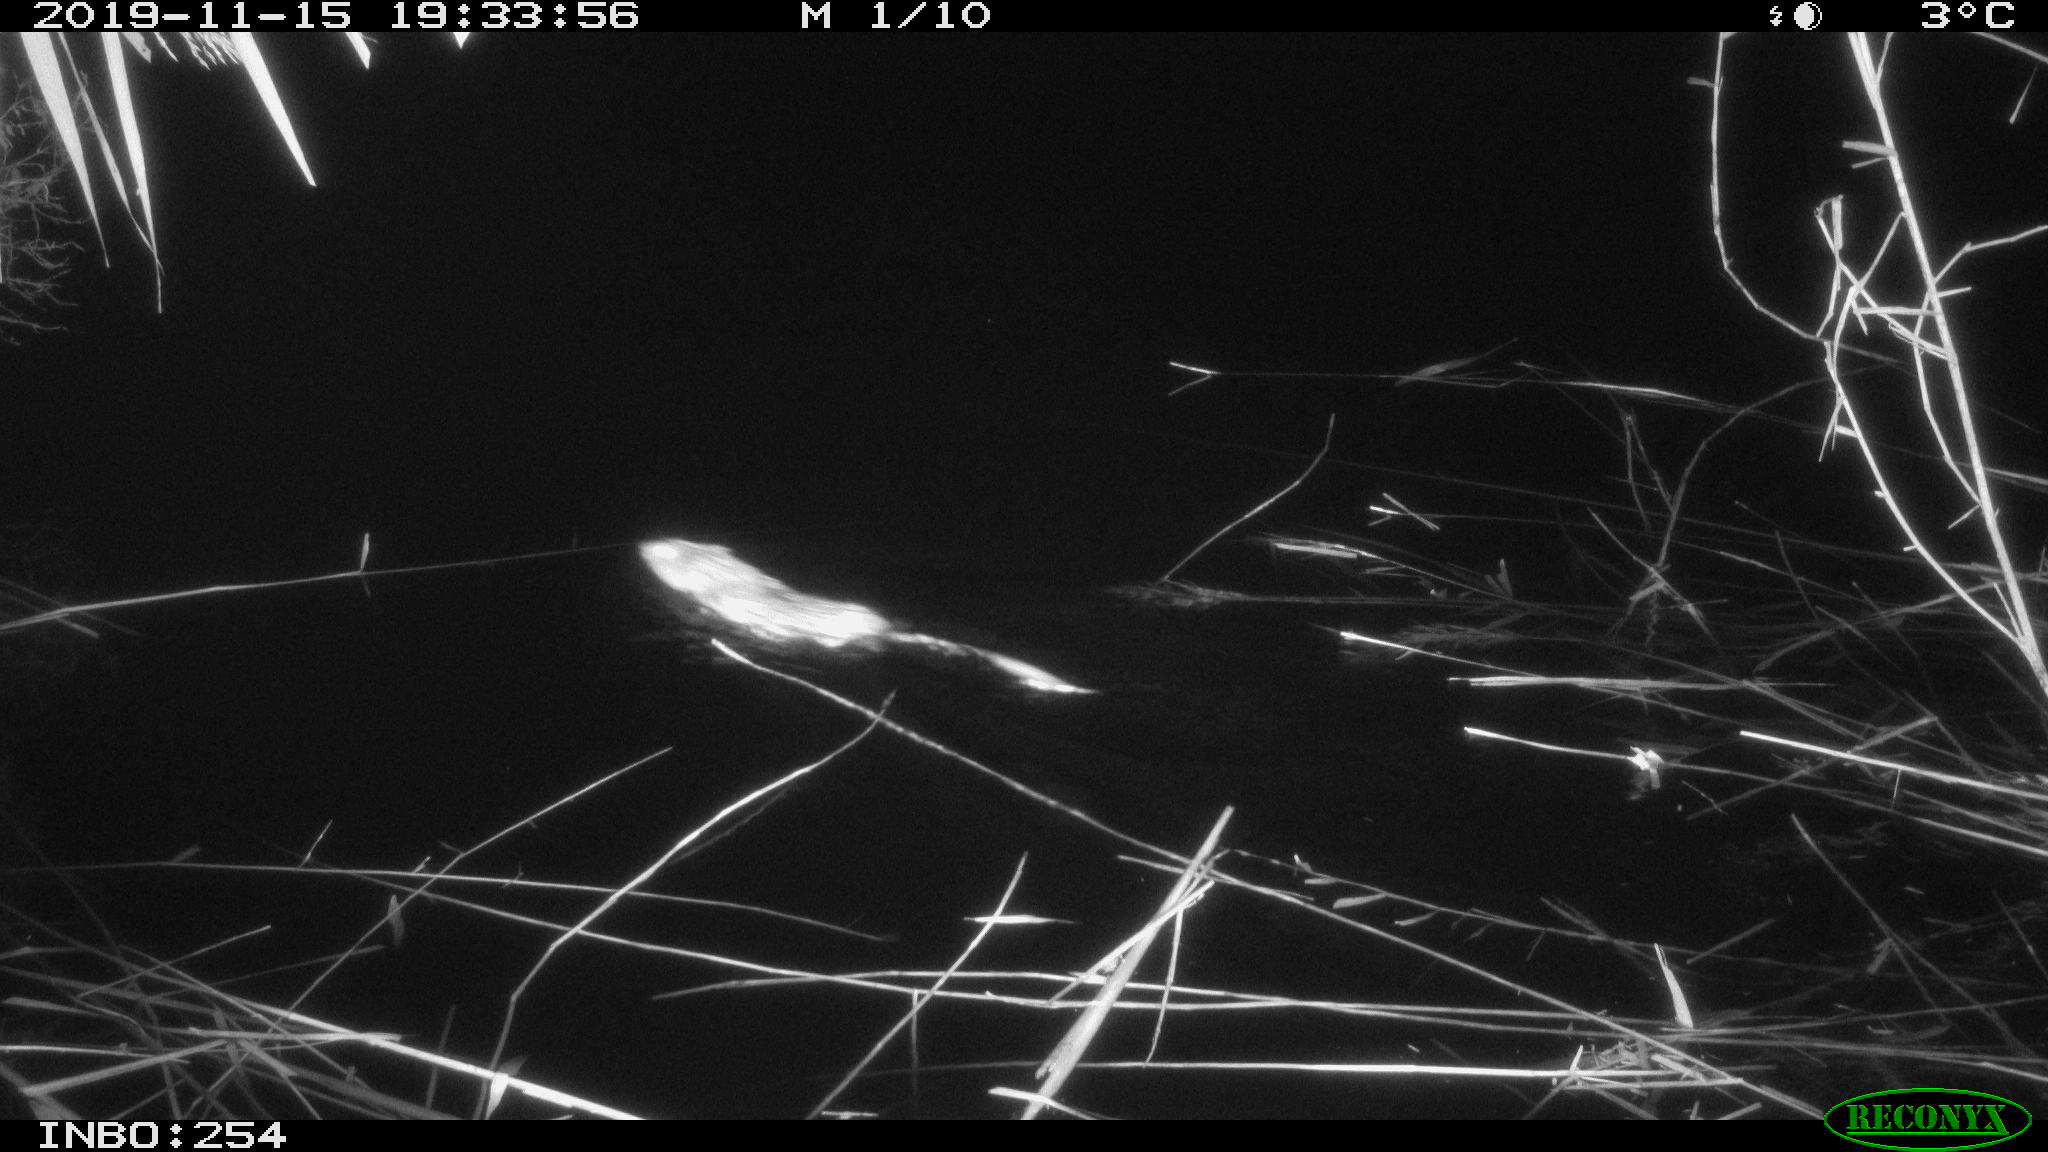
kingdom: Animalia
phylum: Chordata
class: Mammalia
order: Rodentia
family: Cricetidae
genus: Ondatra
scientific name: Ondatra zibethicus
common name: Muskrat
